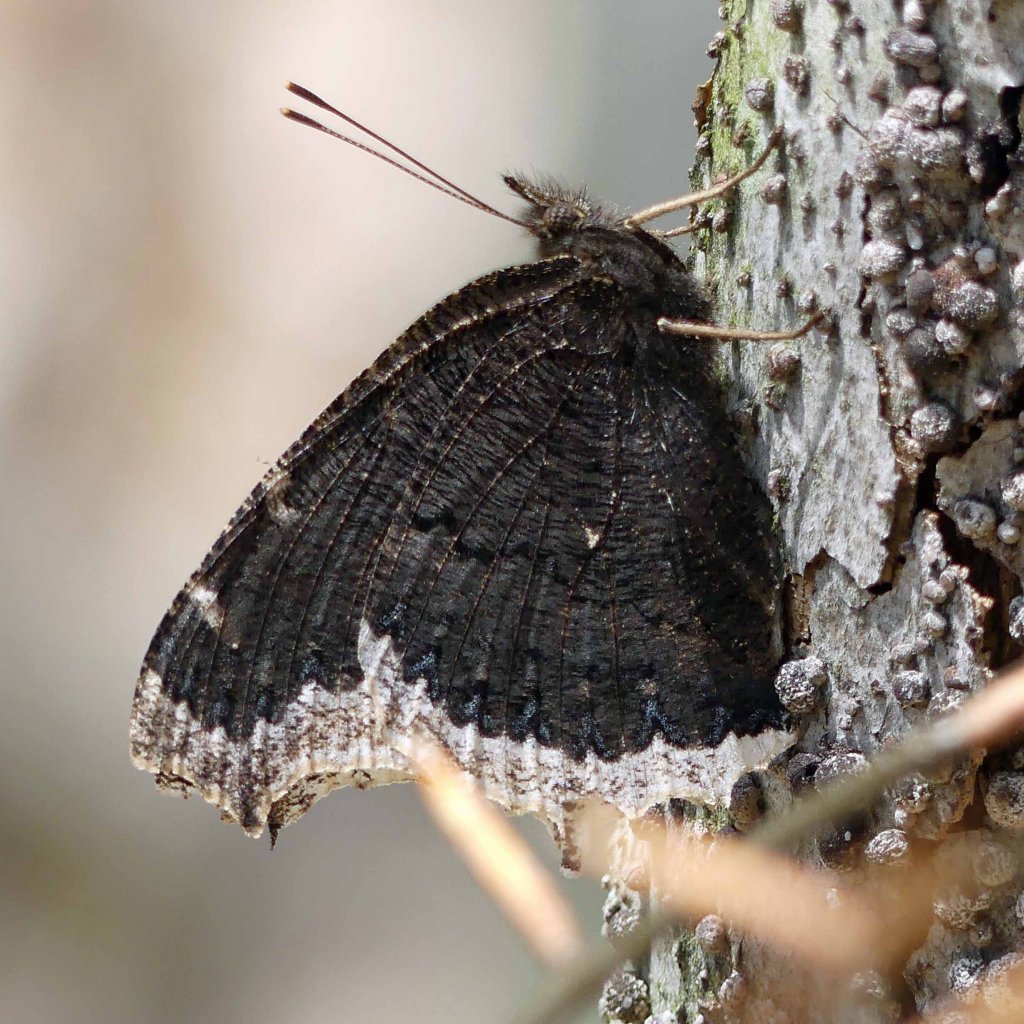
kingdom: Animalia
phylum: Arthropoda
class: Insecta
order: Lepidoptera
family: Nymphalidae
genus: Nymphalis
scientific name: Nymphalis antiopa
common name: Mourning Cloak
